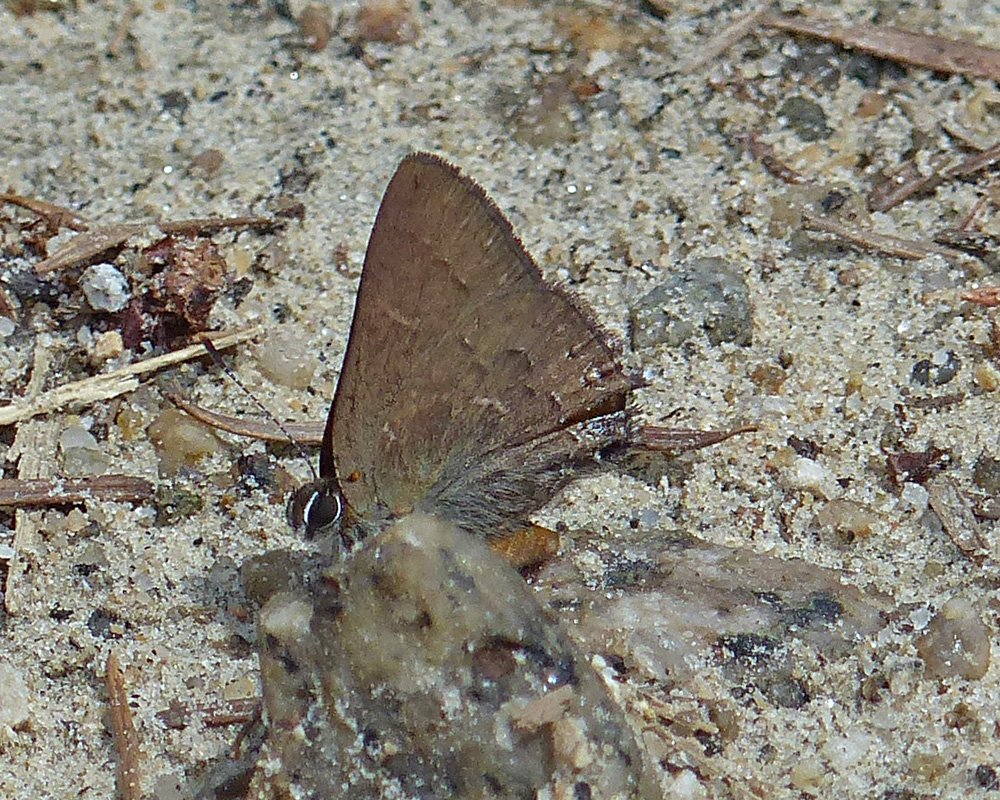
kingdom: Animalia
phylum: Arthropoda
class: Insecta
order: Lepidoptera
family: Lycaenidae
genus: Strymon
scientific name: Strymon saepium
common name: Hedgerow Hairstreak
